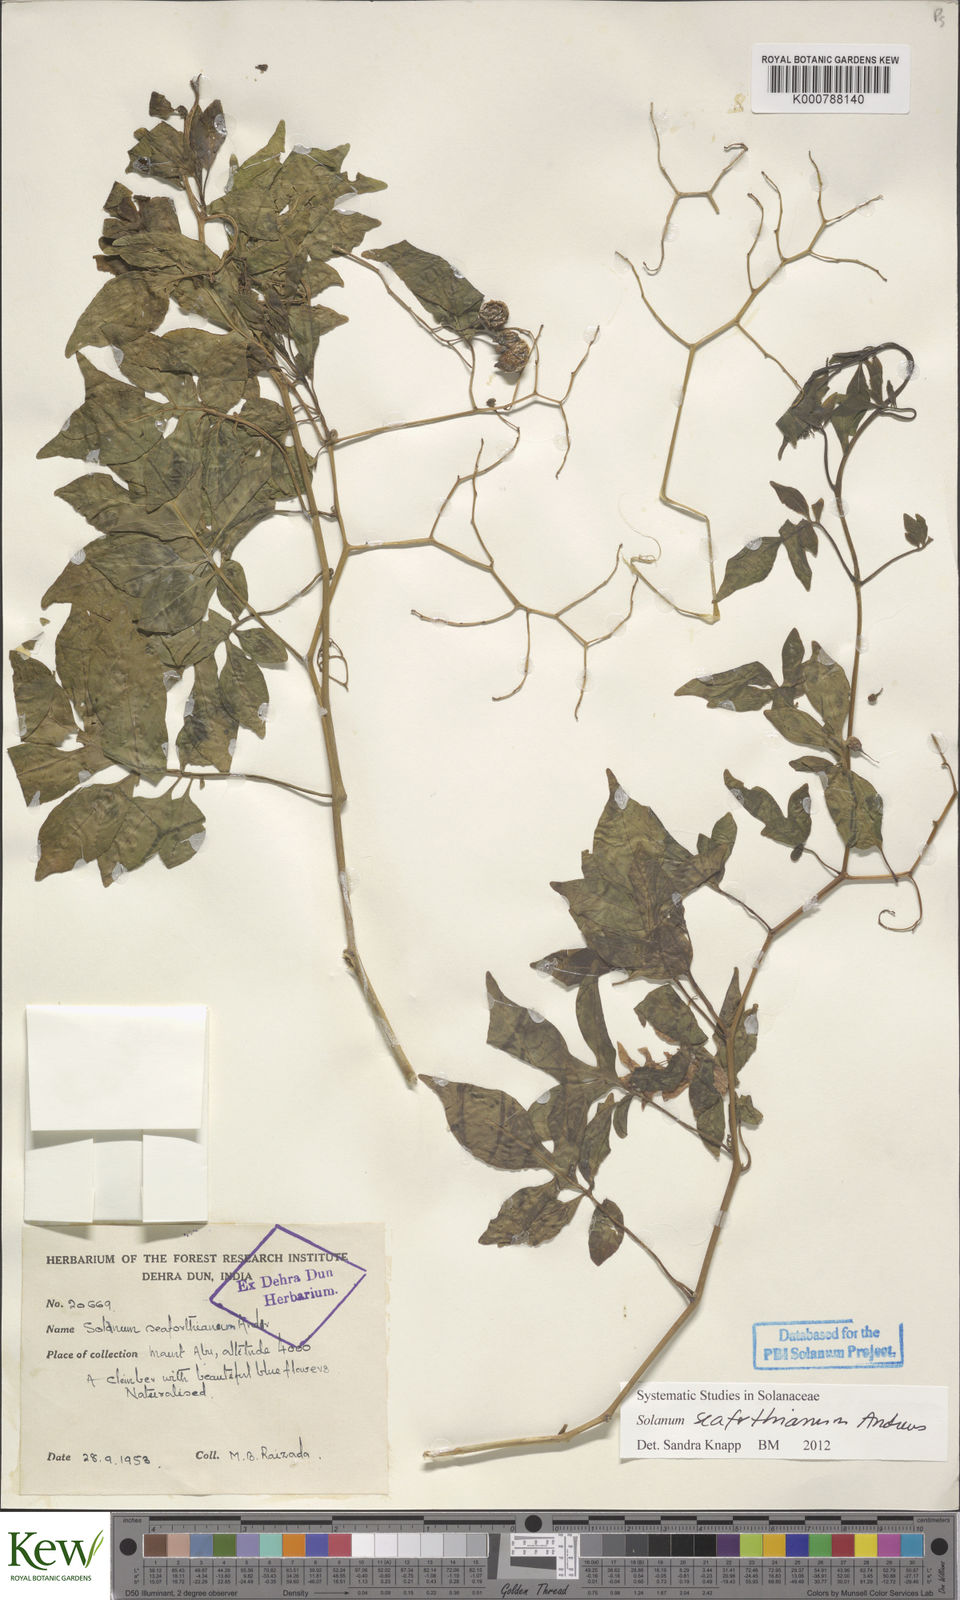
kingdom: Plantae
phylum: Tracheophyta
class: Magnoliopsida
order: Solanales
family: Solanaceae
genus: Solanum
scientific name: Solanum seaforthianum
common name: Brazilian nightshade
